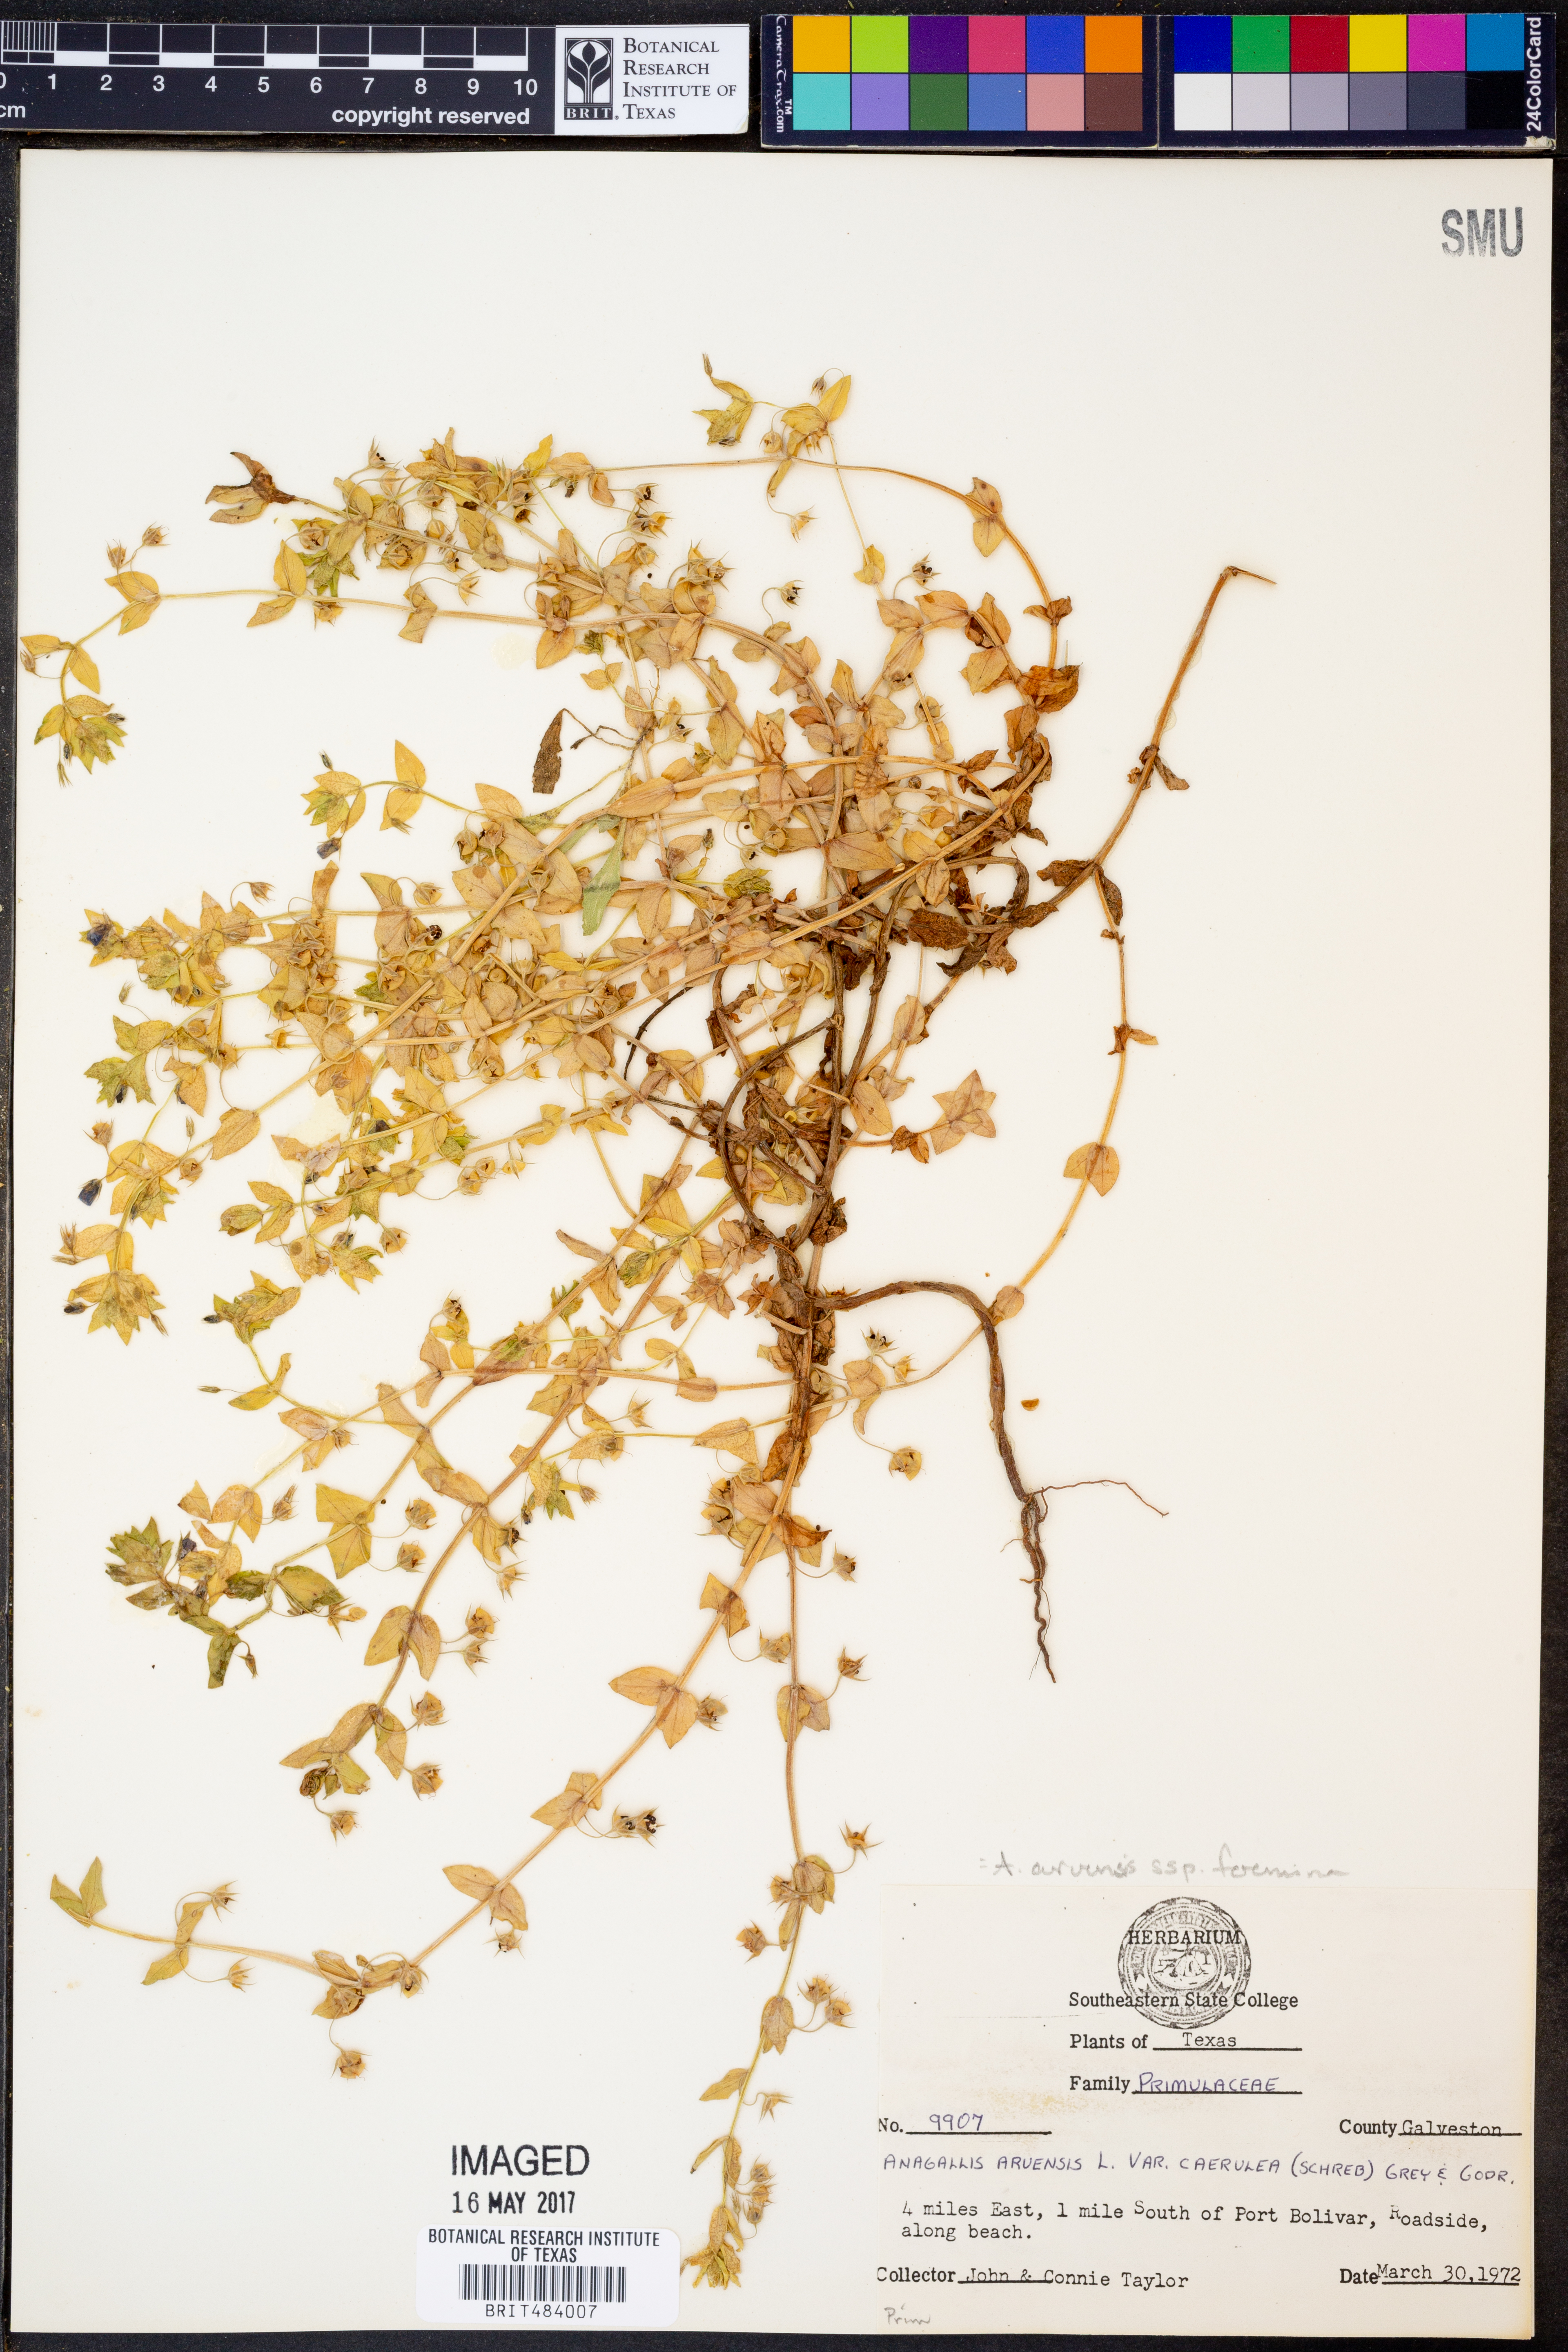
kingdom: Plantae
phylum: Tracheophyta
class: Magnoliopsida
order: Ericales
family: Primulaceae
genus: Lysimachia
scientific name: Lysimachia foemina
